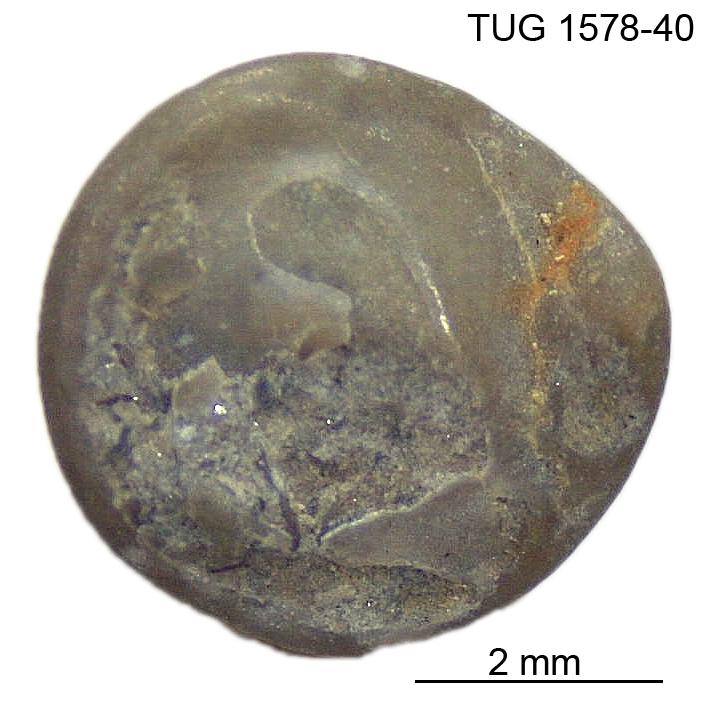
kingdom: Animalia
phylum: Mollusca
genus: Anticalyptraea
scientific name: Anticalyptraea westergaardi
